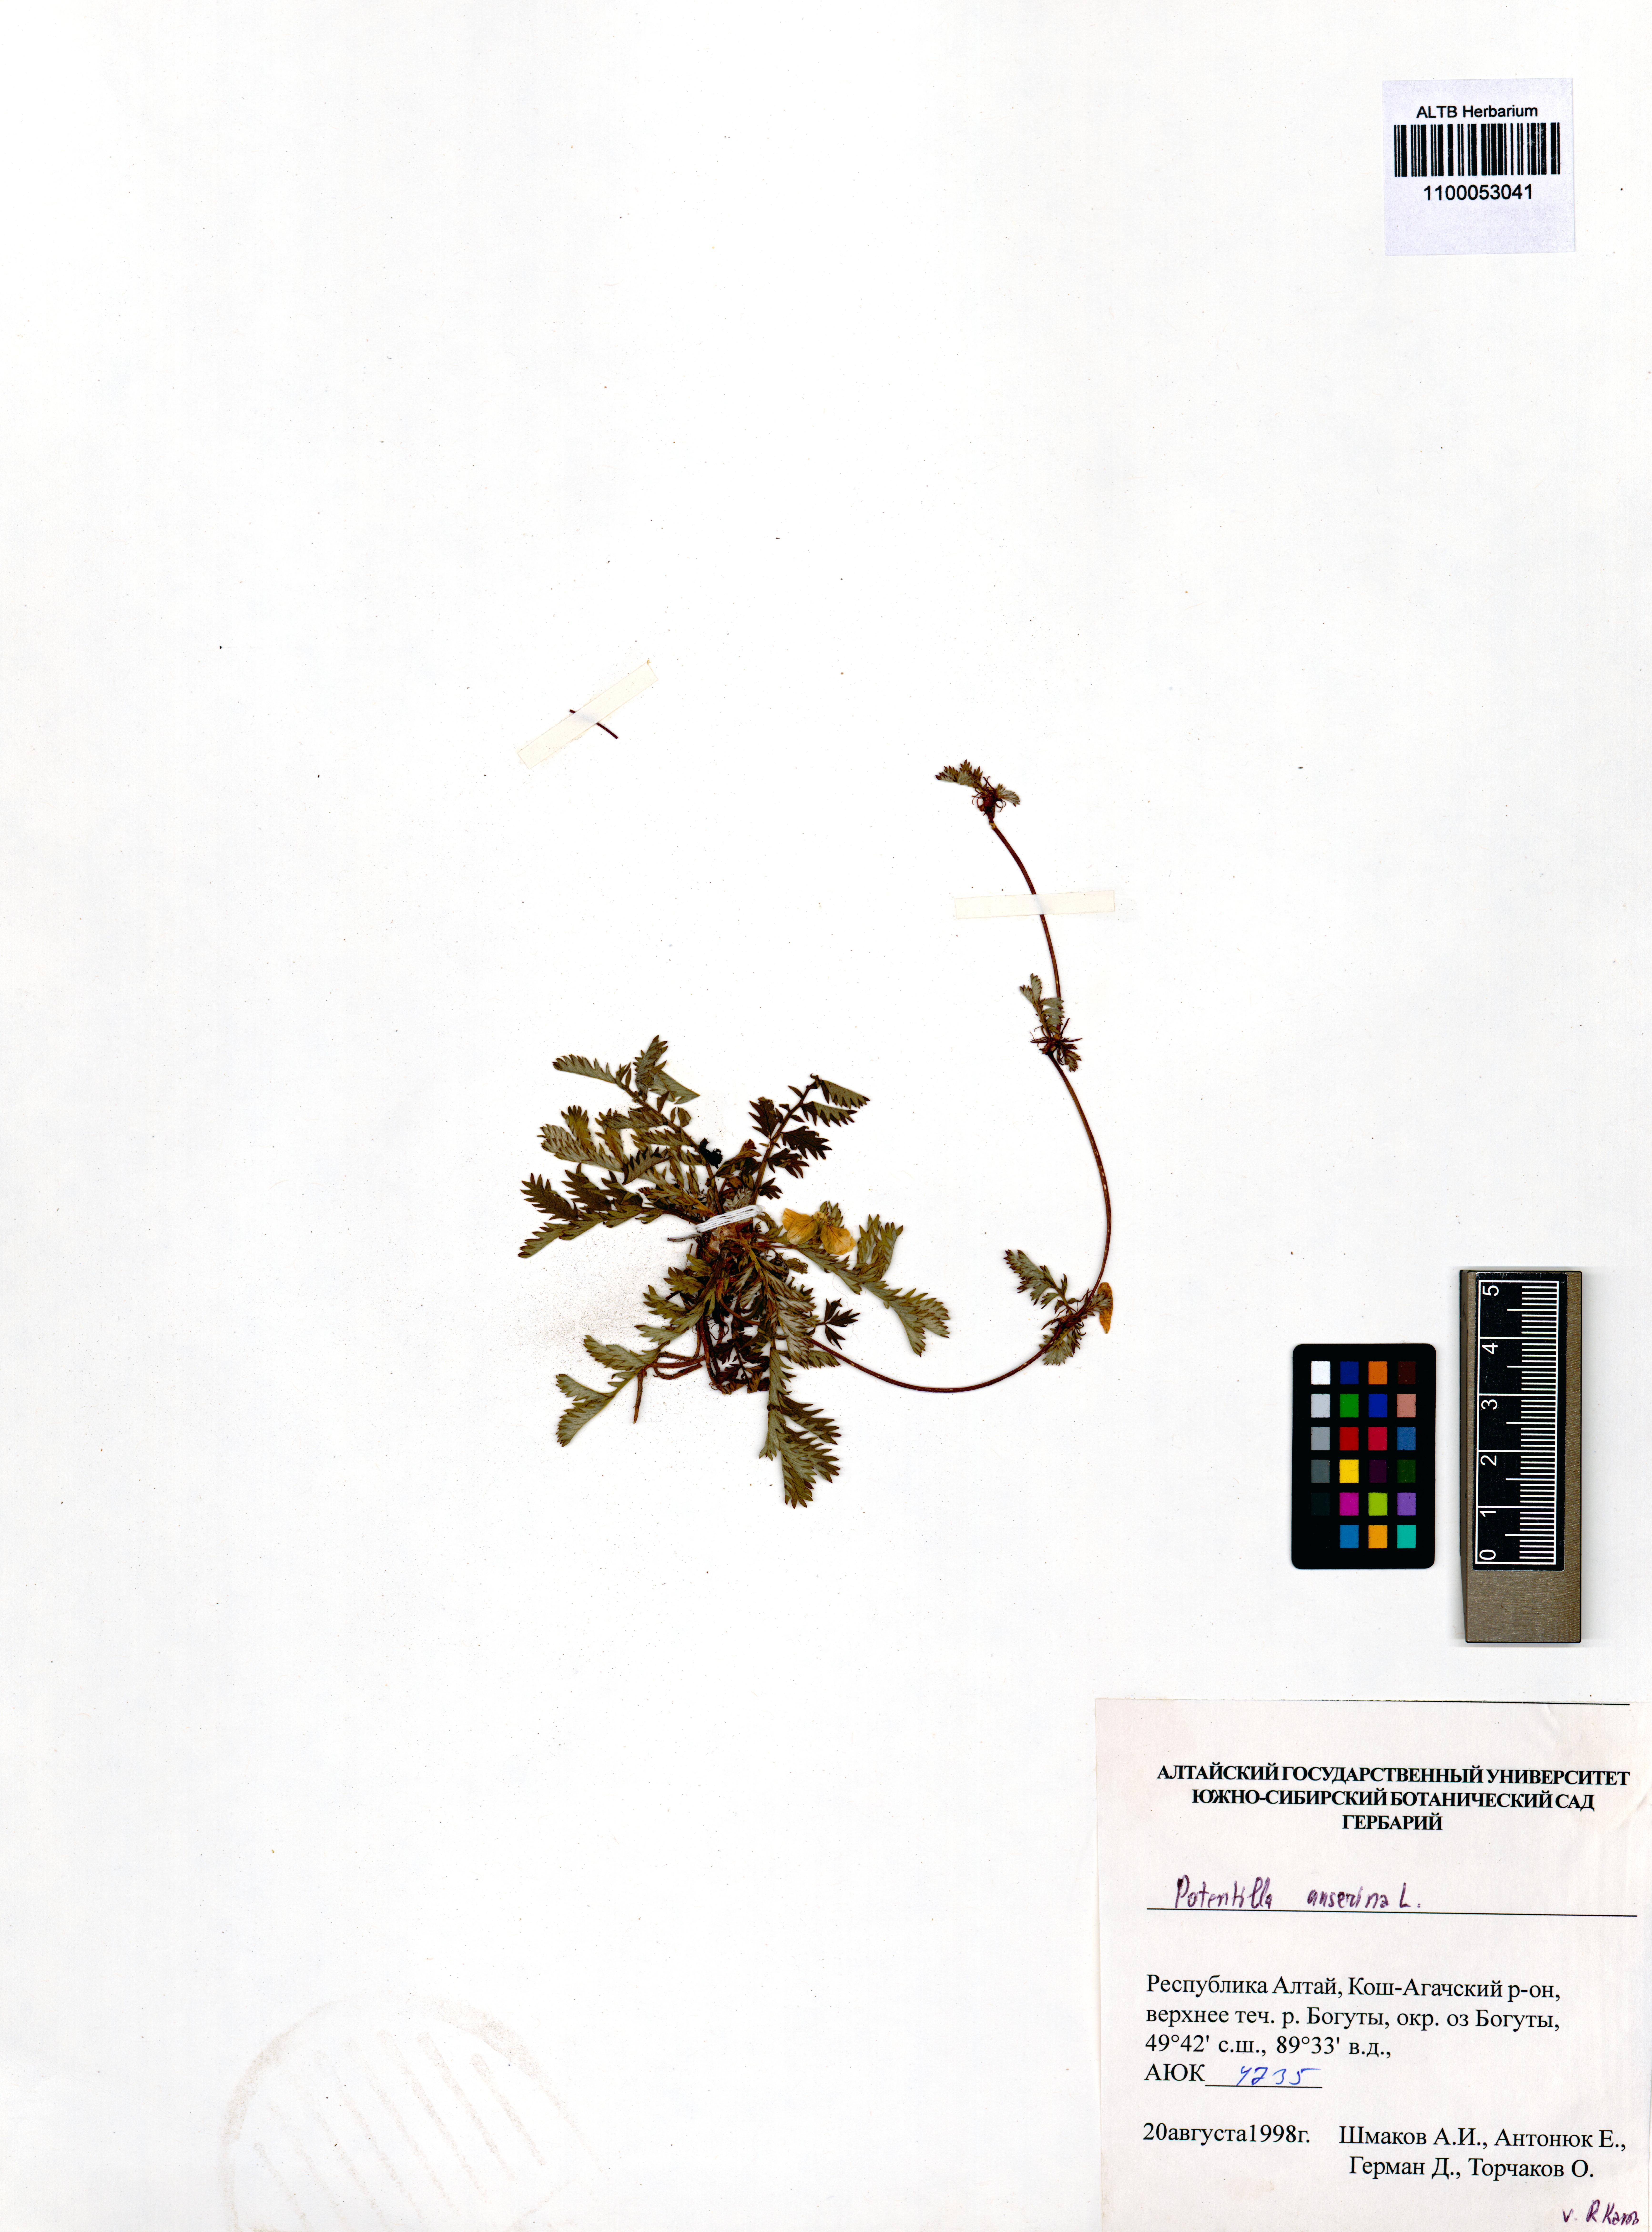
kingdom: Plantae
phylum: Tracheophyta
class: Magnoliopsida
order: Rosales
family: Rosaceae
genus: Argentina
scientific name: Argentina anserina
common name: Common silverweed
